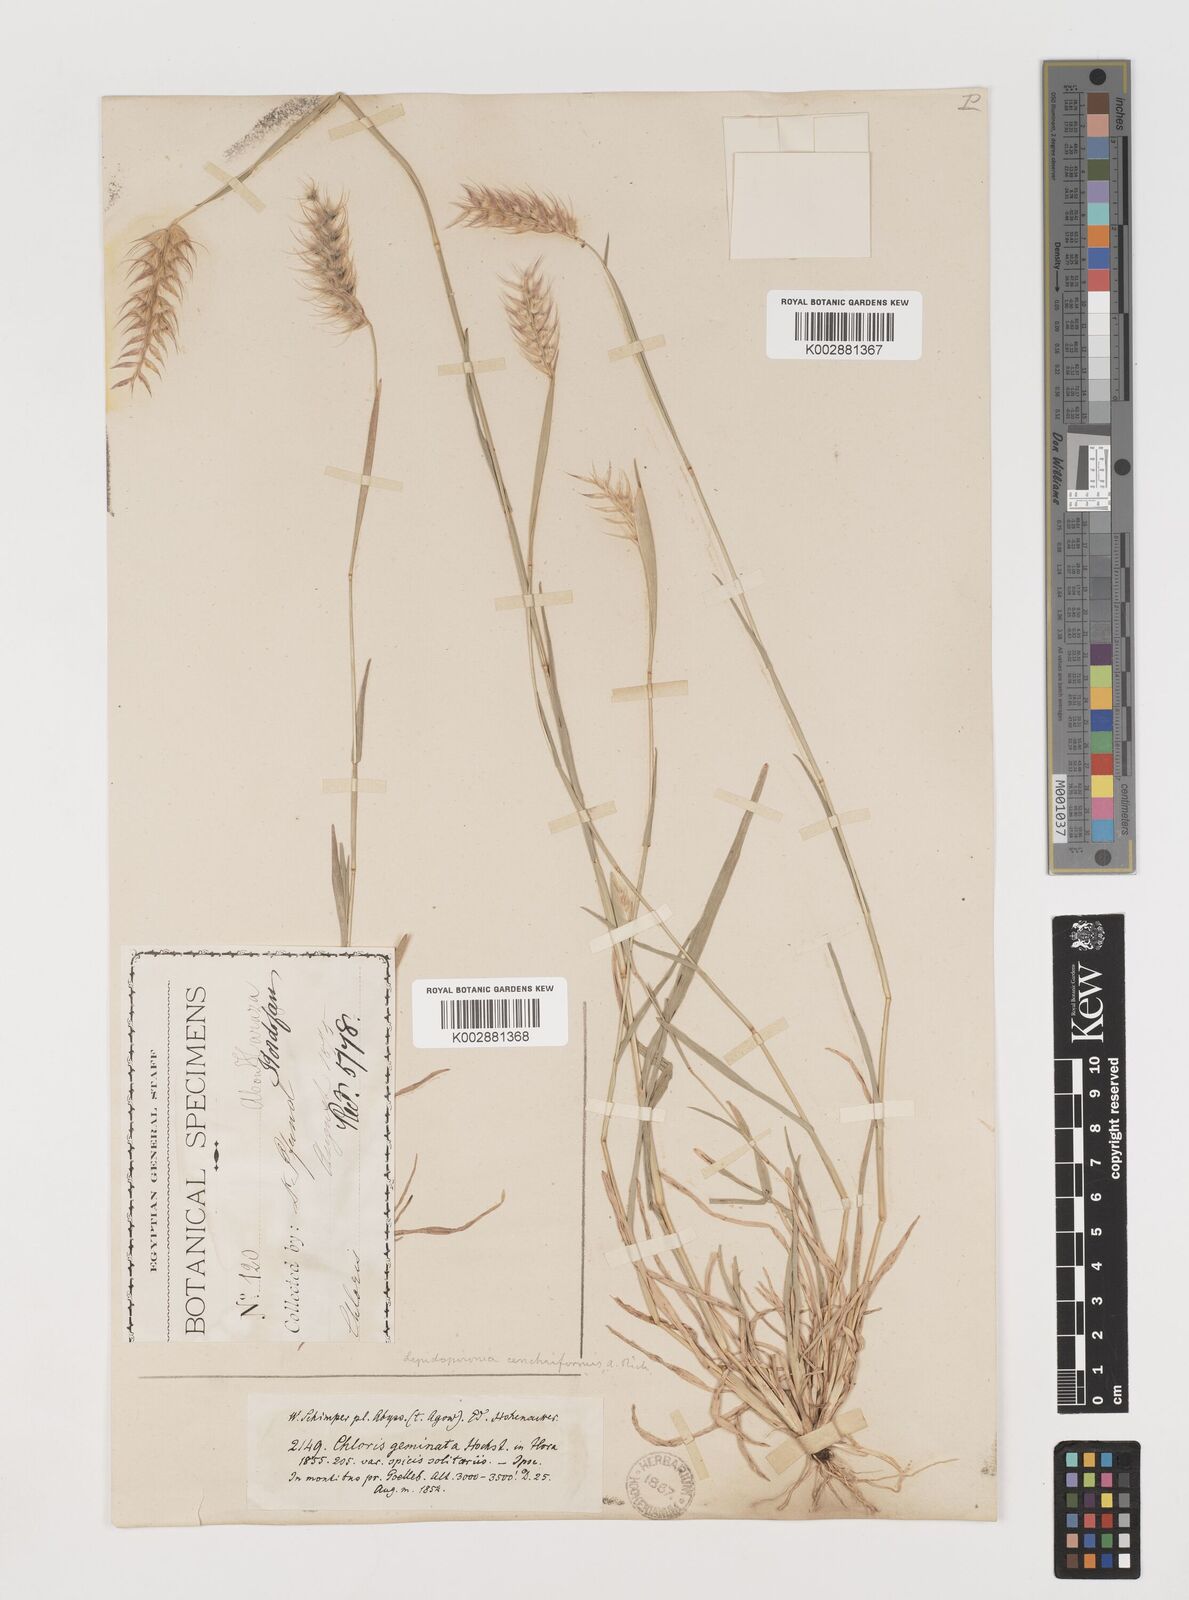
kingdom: Plantae
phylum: Tracheophyta
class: Liliopsida
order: Poales
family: Poaceae
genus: Tetrapogon
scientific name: Tetrapogon cenchriformis
